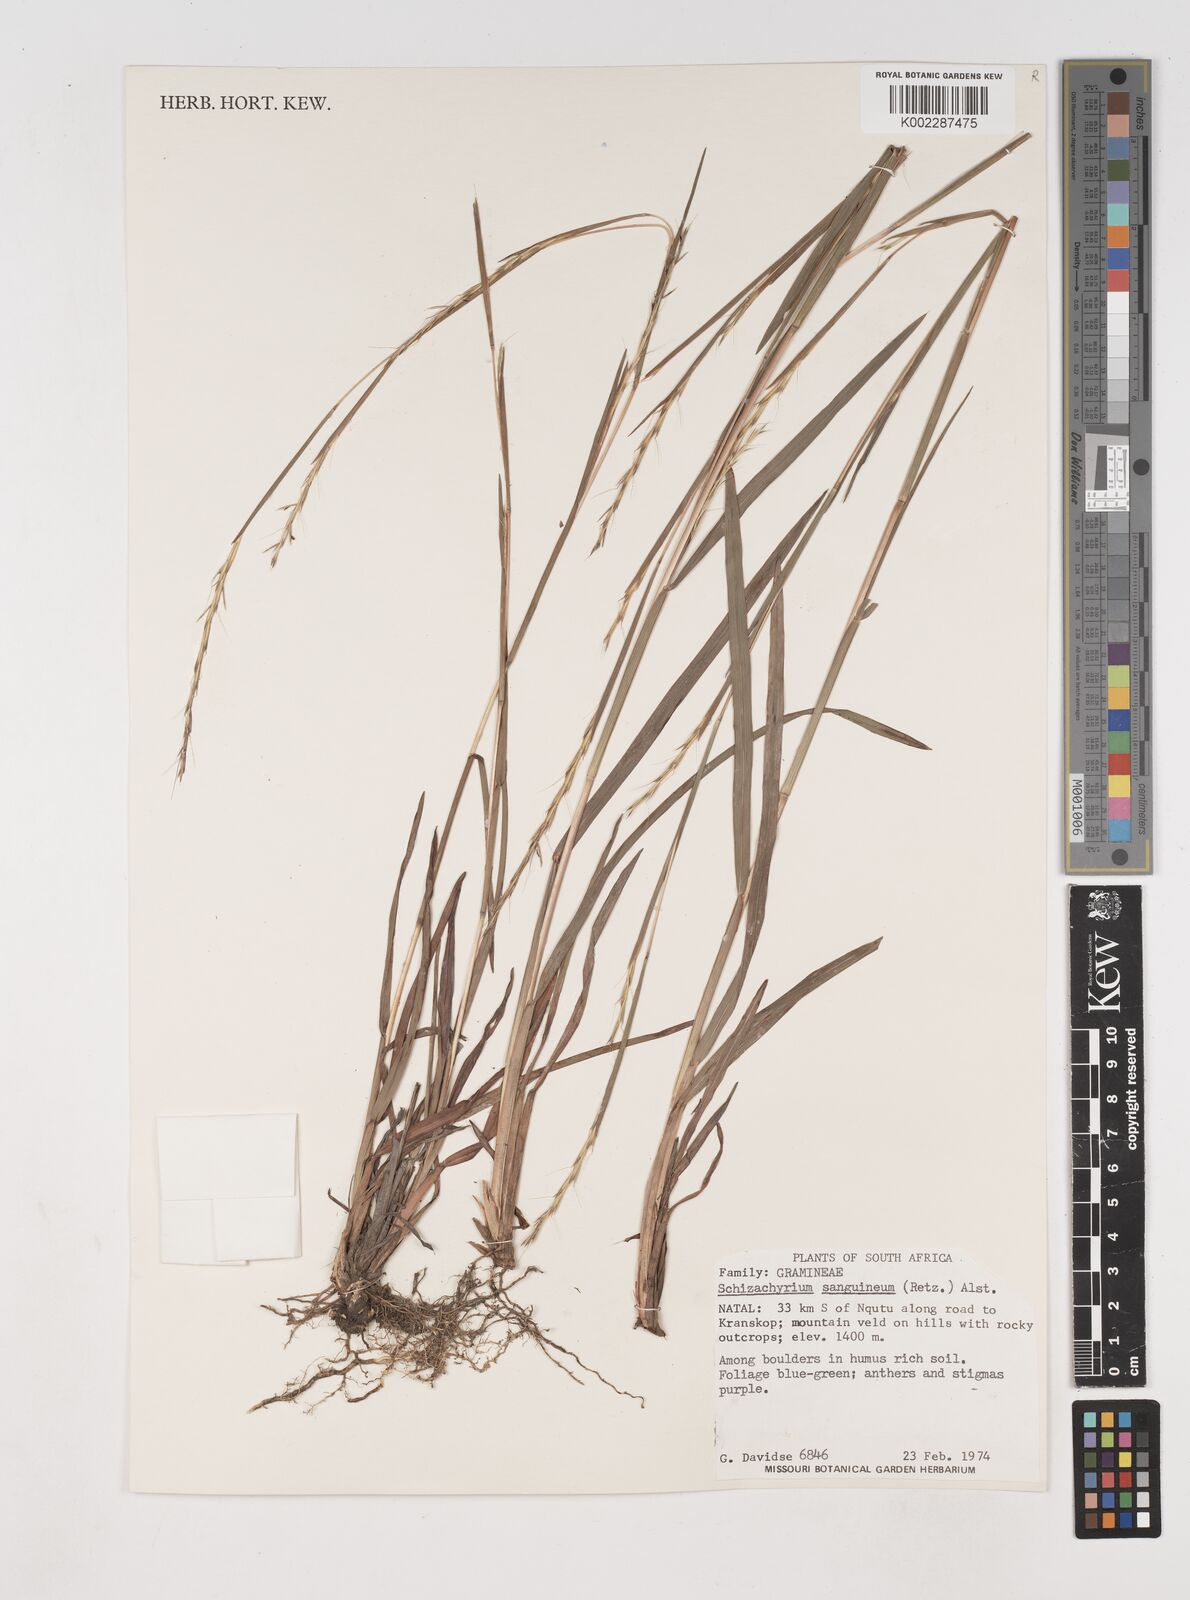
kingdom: Plantae
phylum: Tracheophyta
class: Liliopsida
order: Poales
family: Poaceae
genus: Schizachyrium
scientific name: Schizachyrium sanguineum
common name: Crimson bluestem
